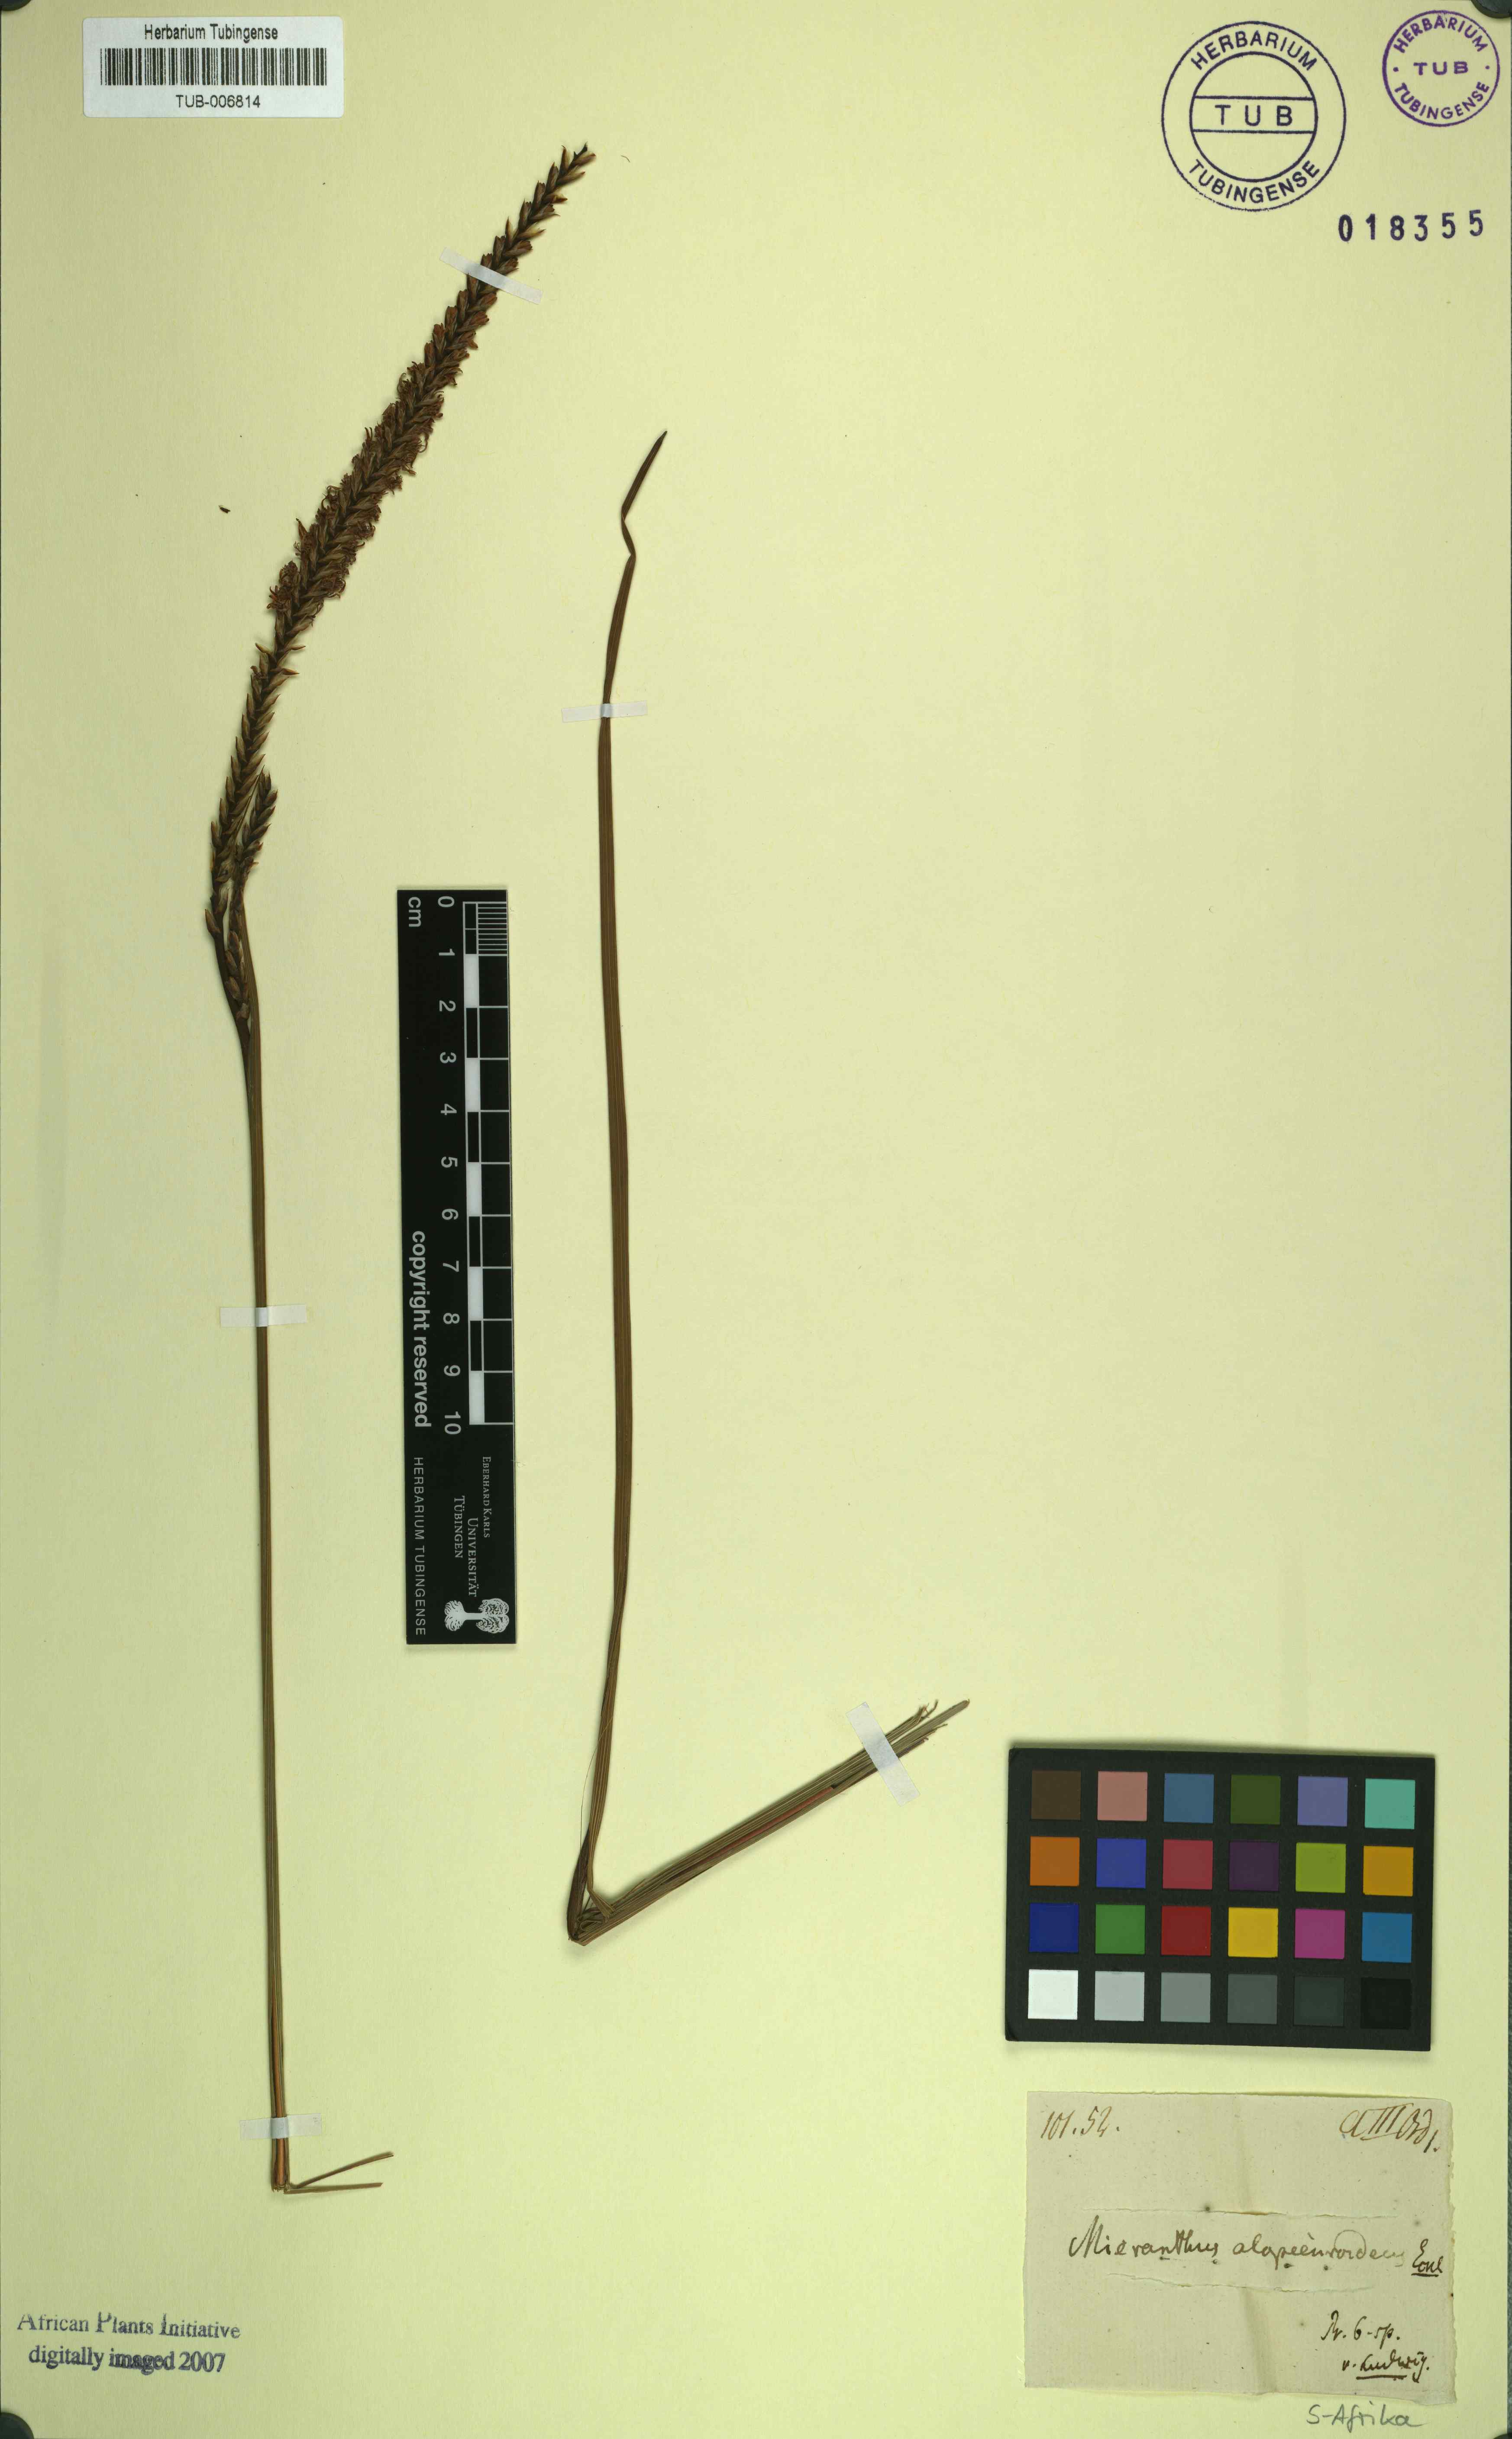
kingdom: Plantae
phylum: Tracheophyta
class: Liliopsida
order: Asparagales
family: Iridaceae
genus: Micranthus
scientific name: Micranthus alopecuroideus
